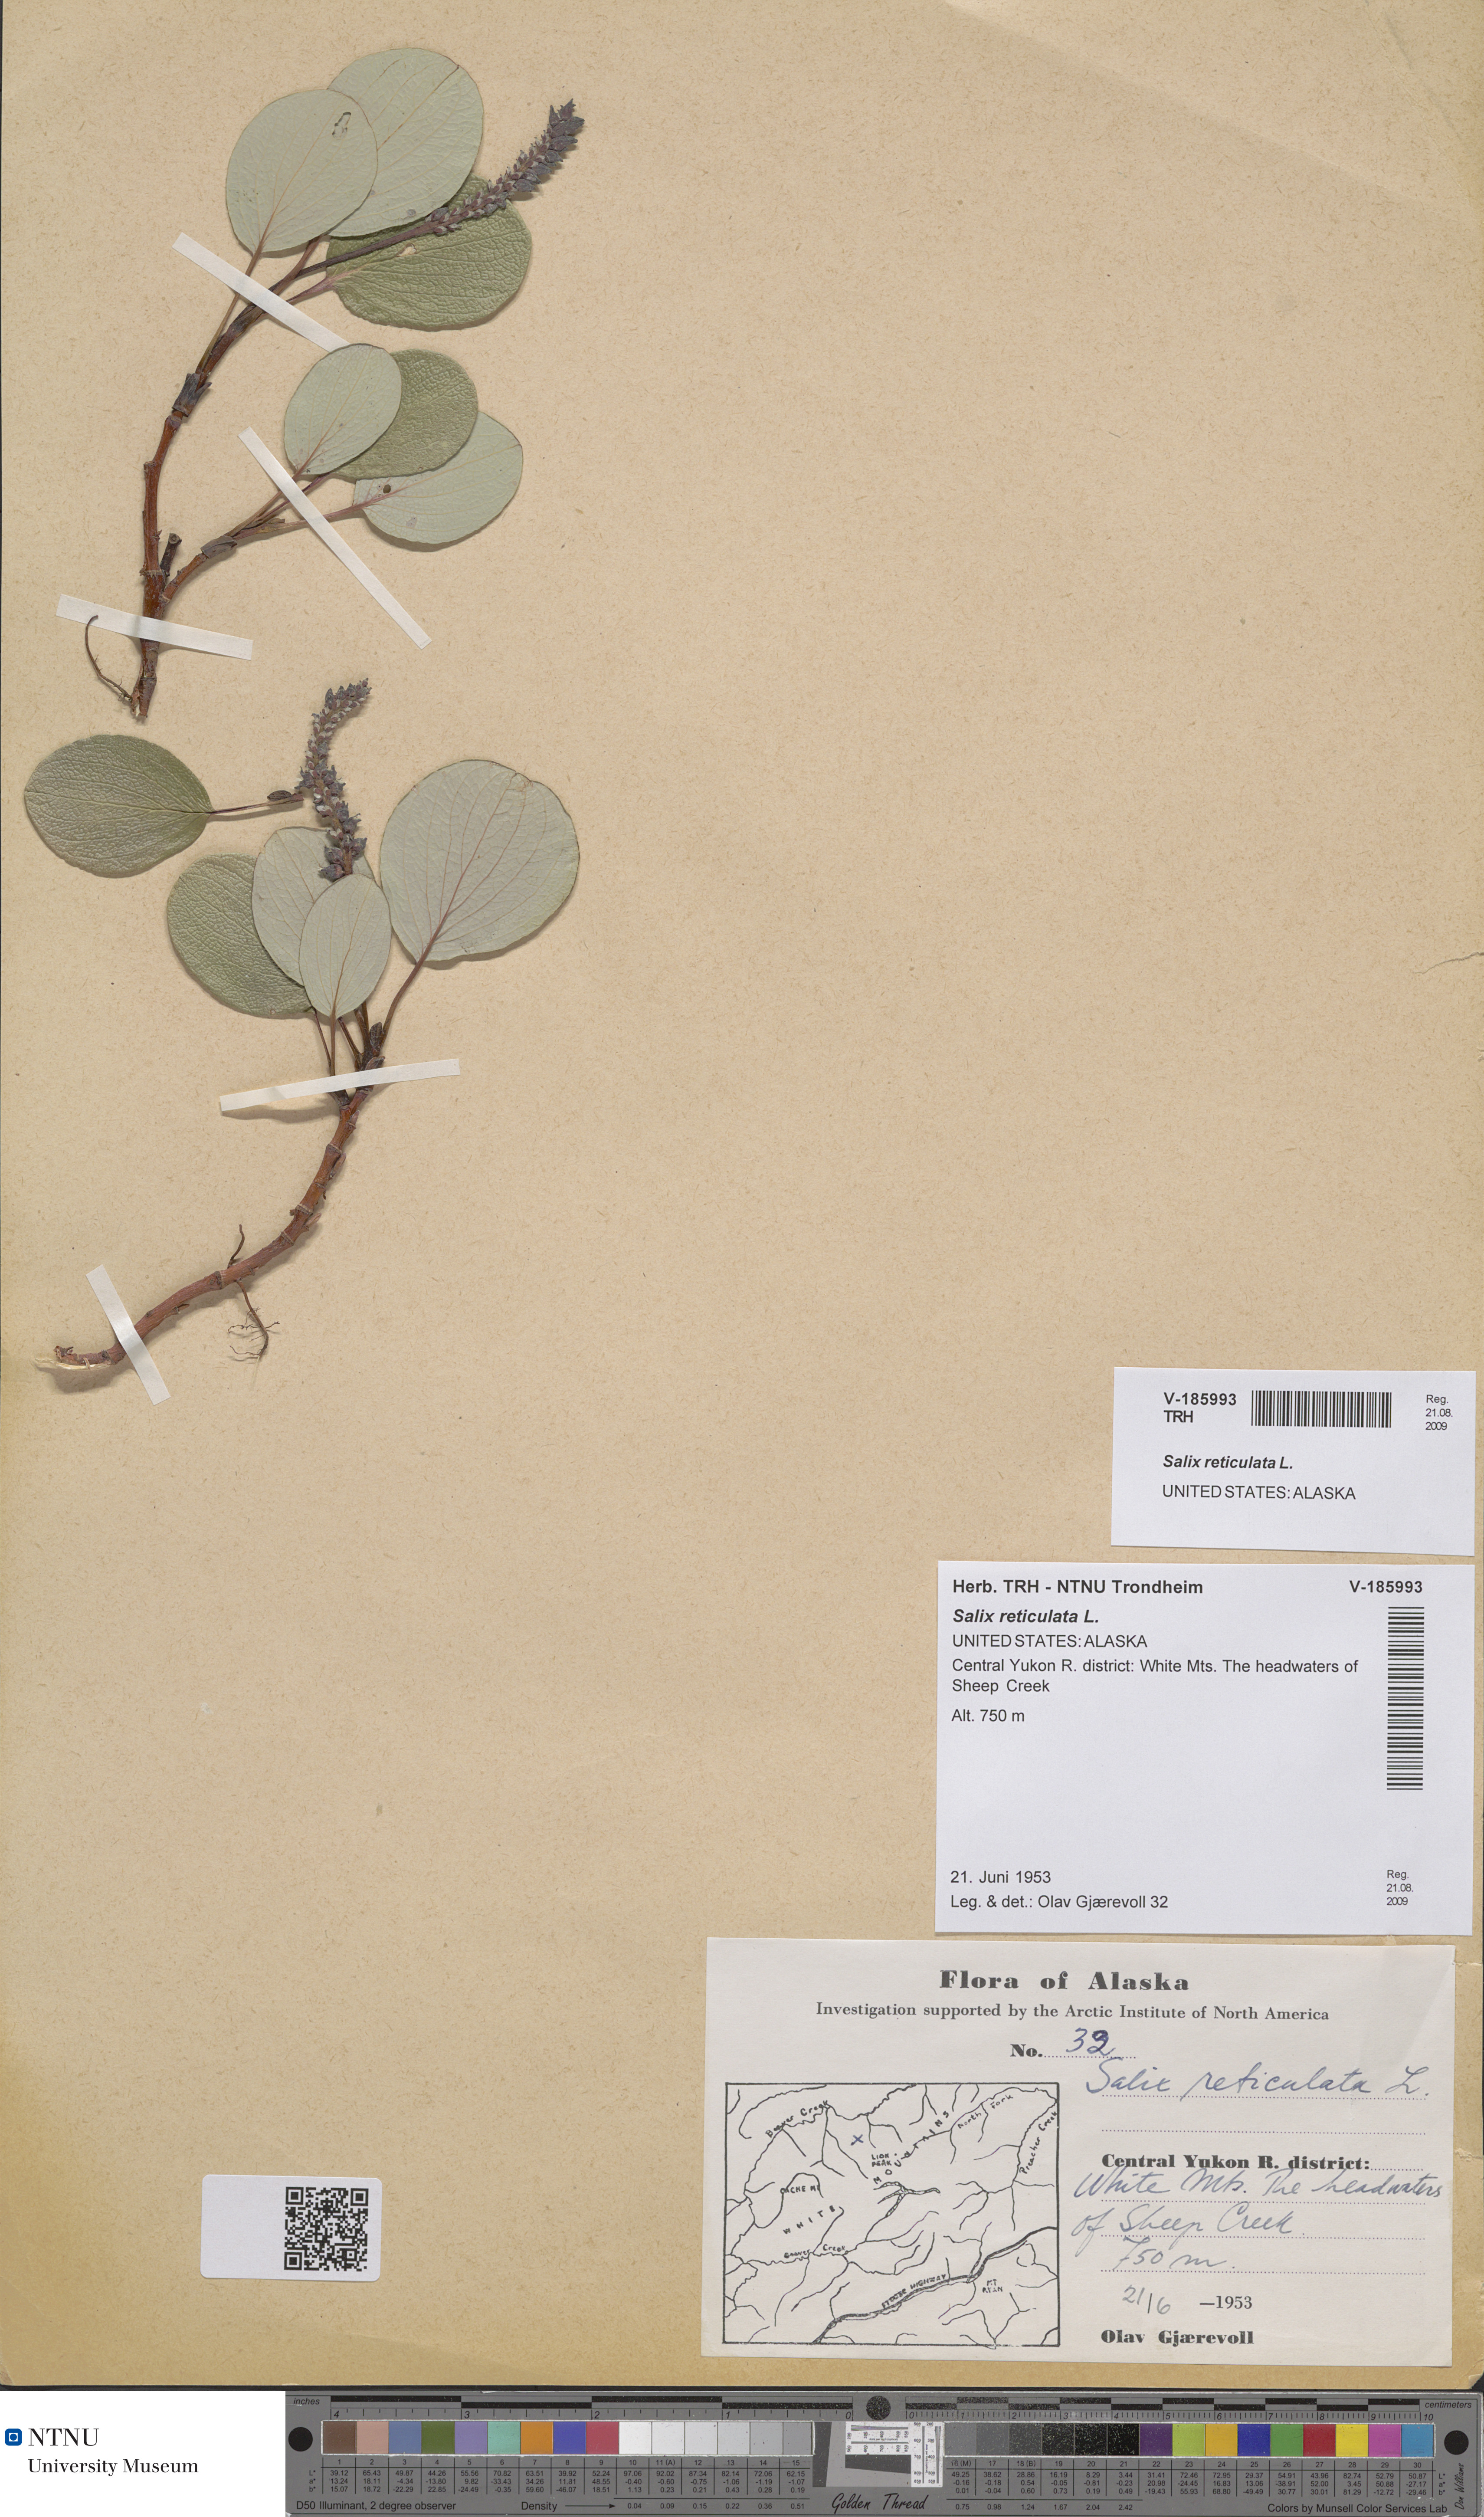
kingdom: Plantae
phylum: Tracheophyta
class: Magnoliopsida
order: Malpighiales
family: Salicaceae
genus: Salix
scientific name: Salix reticulata
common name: Net-leaved willow
